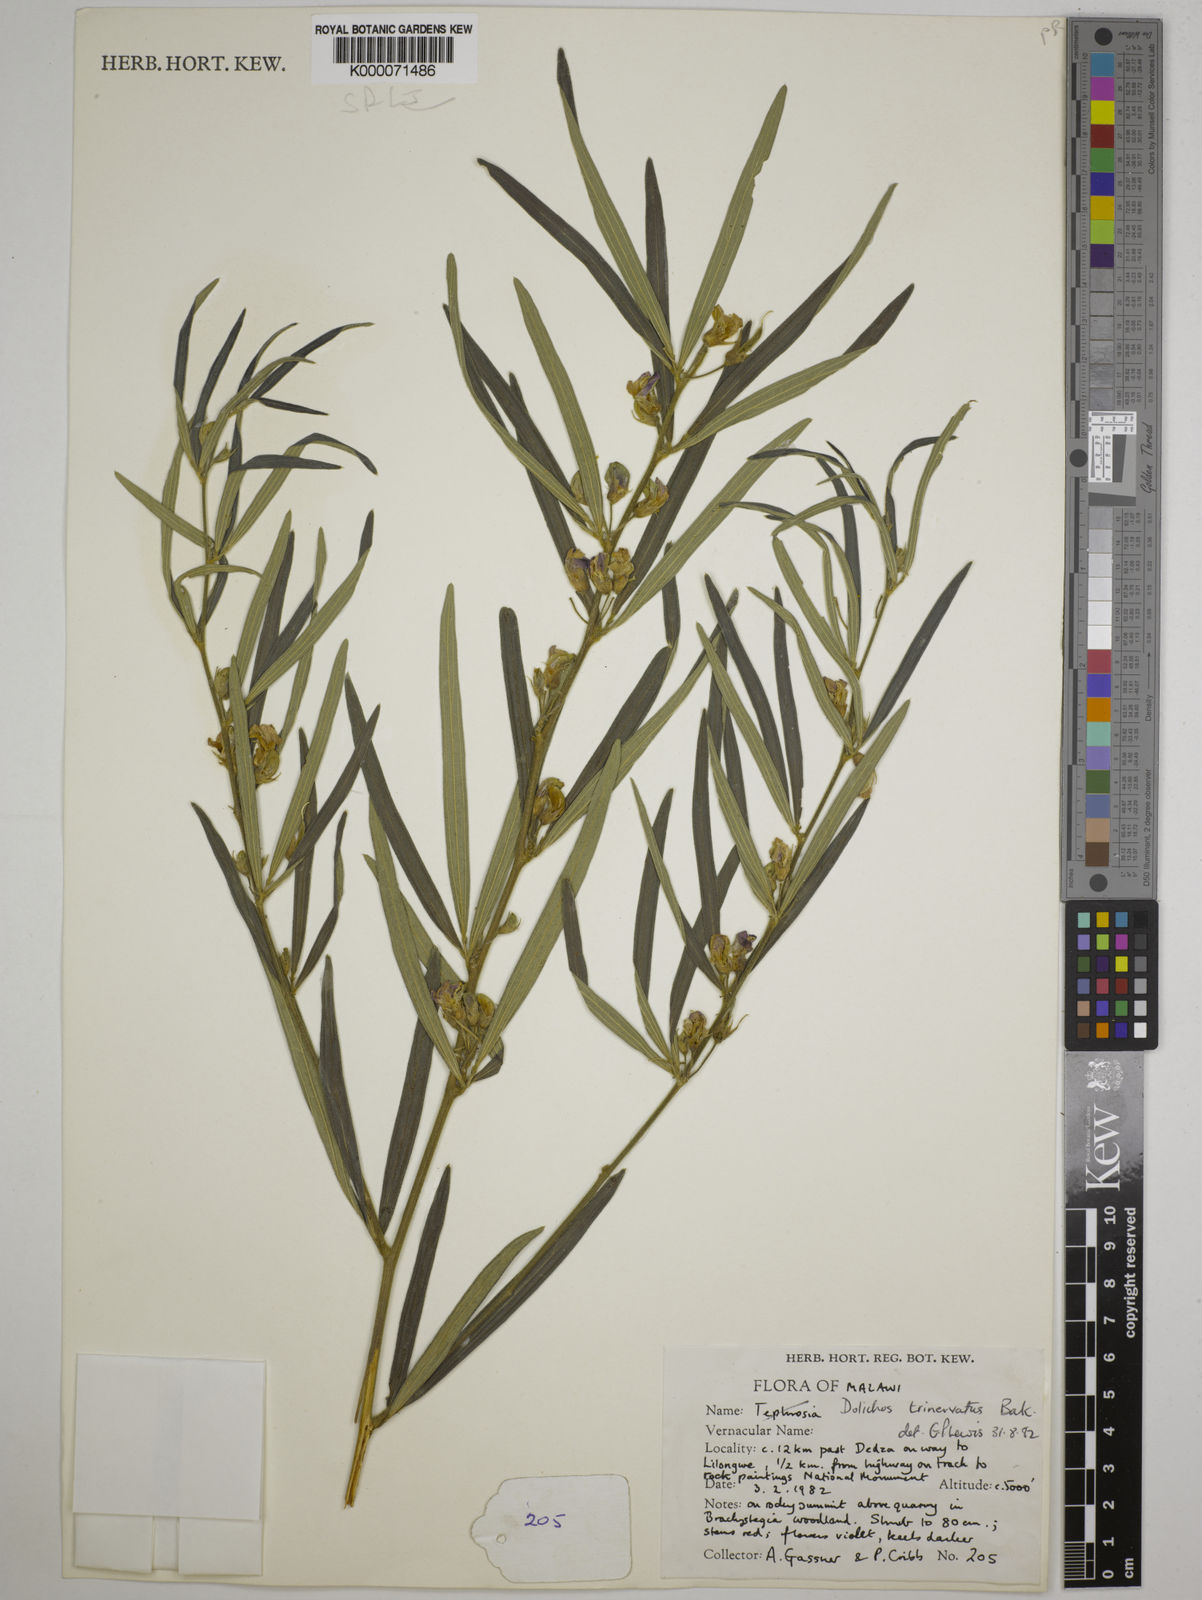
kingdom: Plantae
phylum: Tracheophyta
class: Magnoliopsida
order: Fabales
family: Fabaceae
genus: Dolichos
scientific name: Dolichos trinervatus
